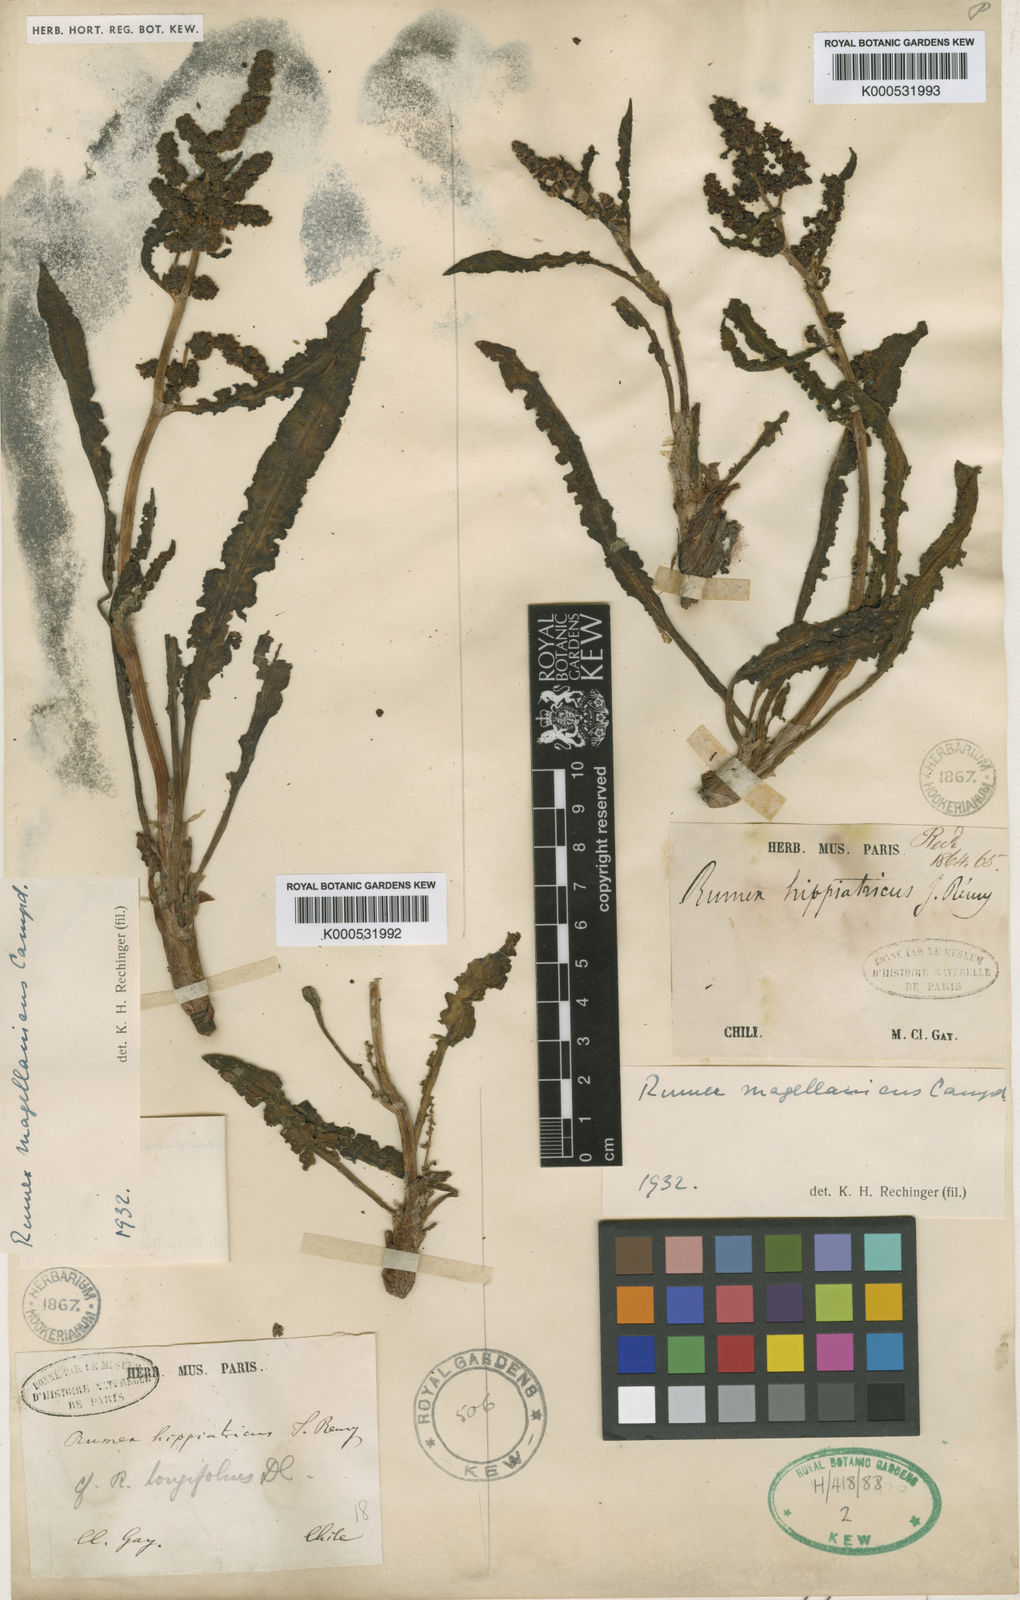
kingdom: Plantae
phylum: Tracheophyta
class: Magnoliopsida
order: Caryophyllales
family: Polygonaceae
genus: Rumex
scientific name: Rumex magellanicus
